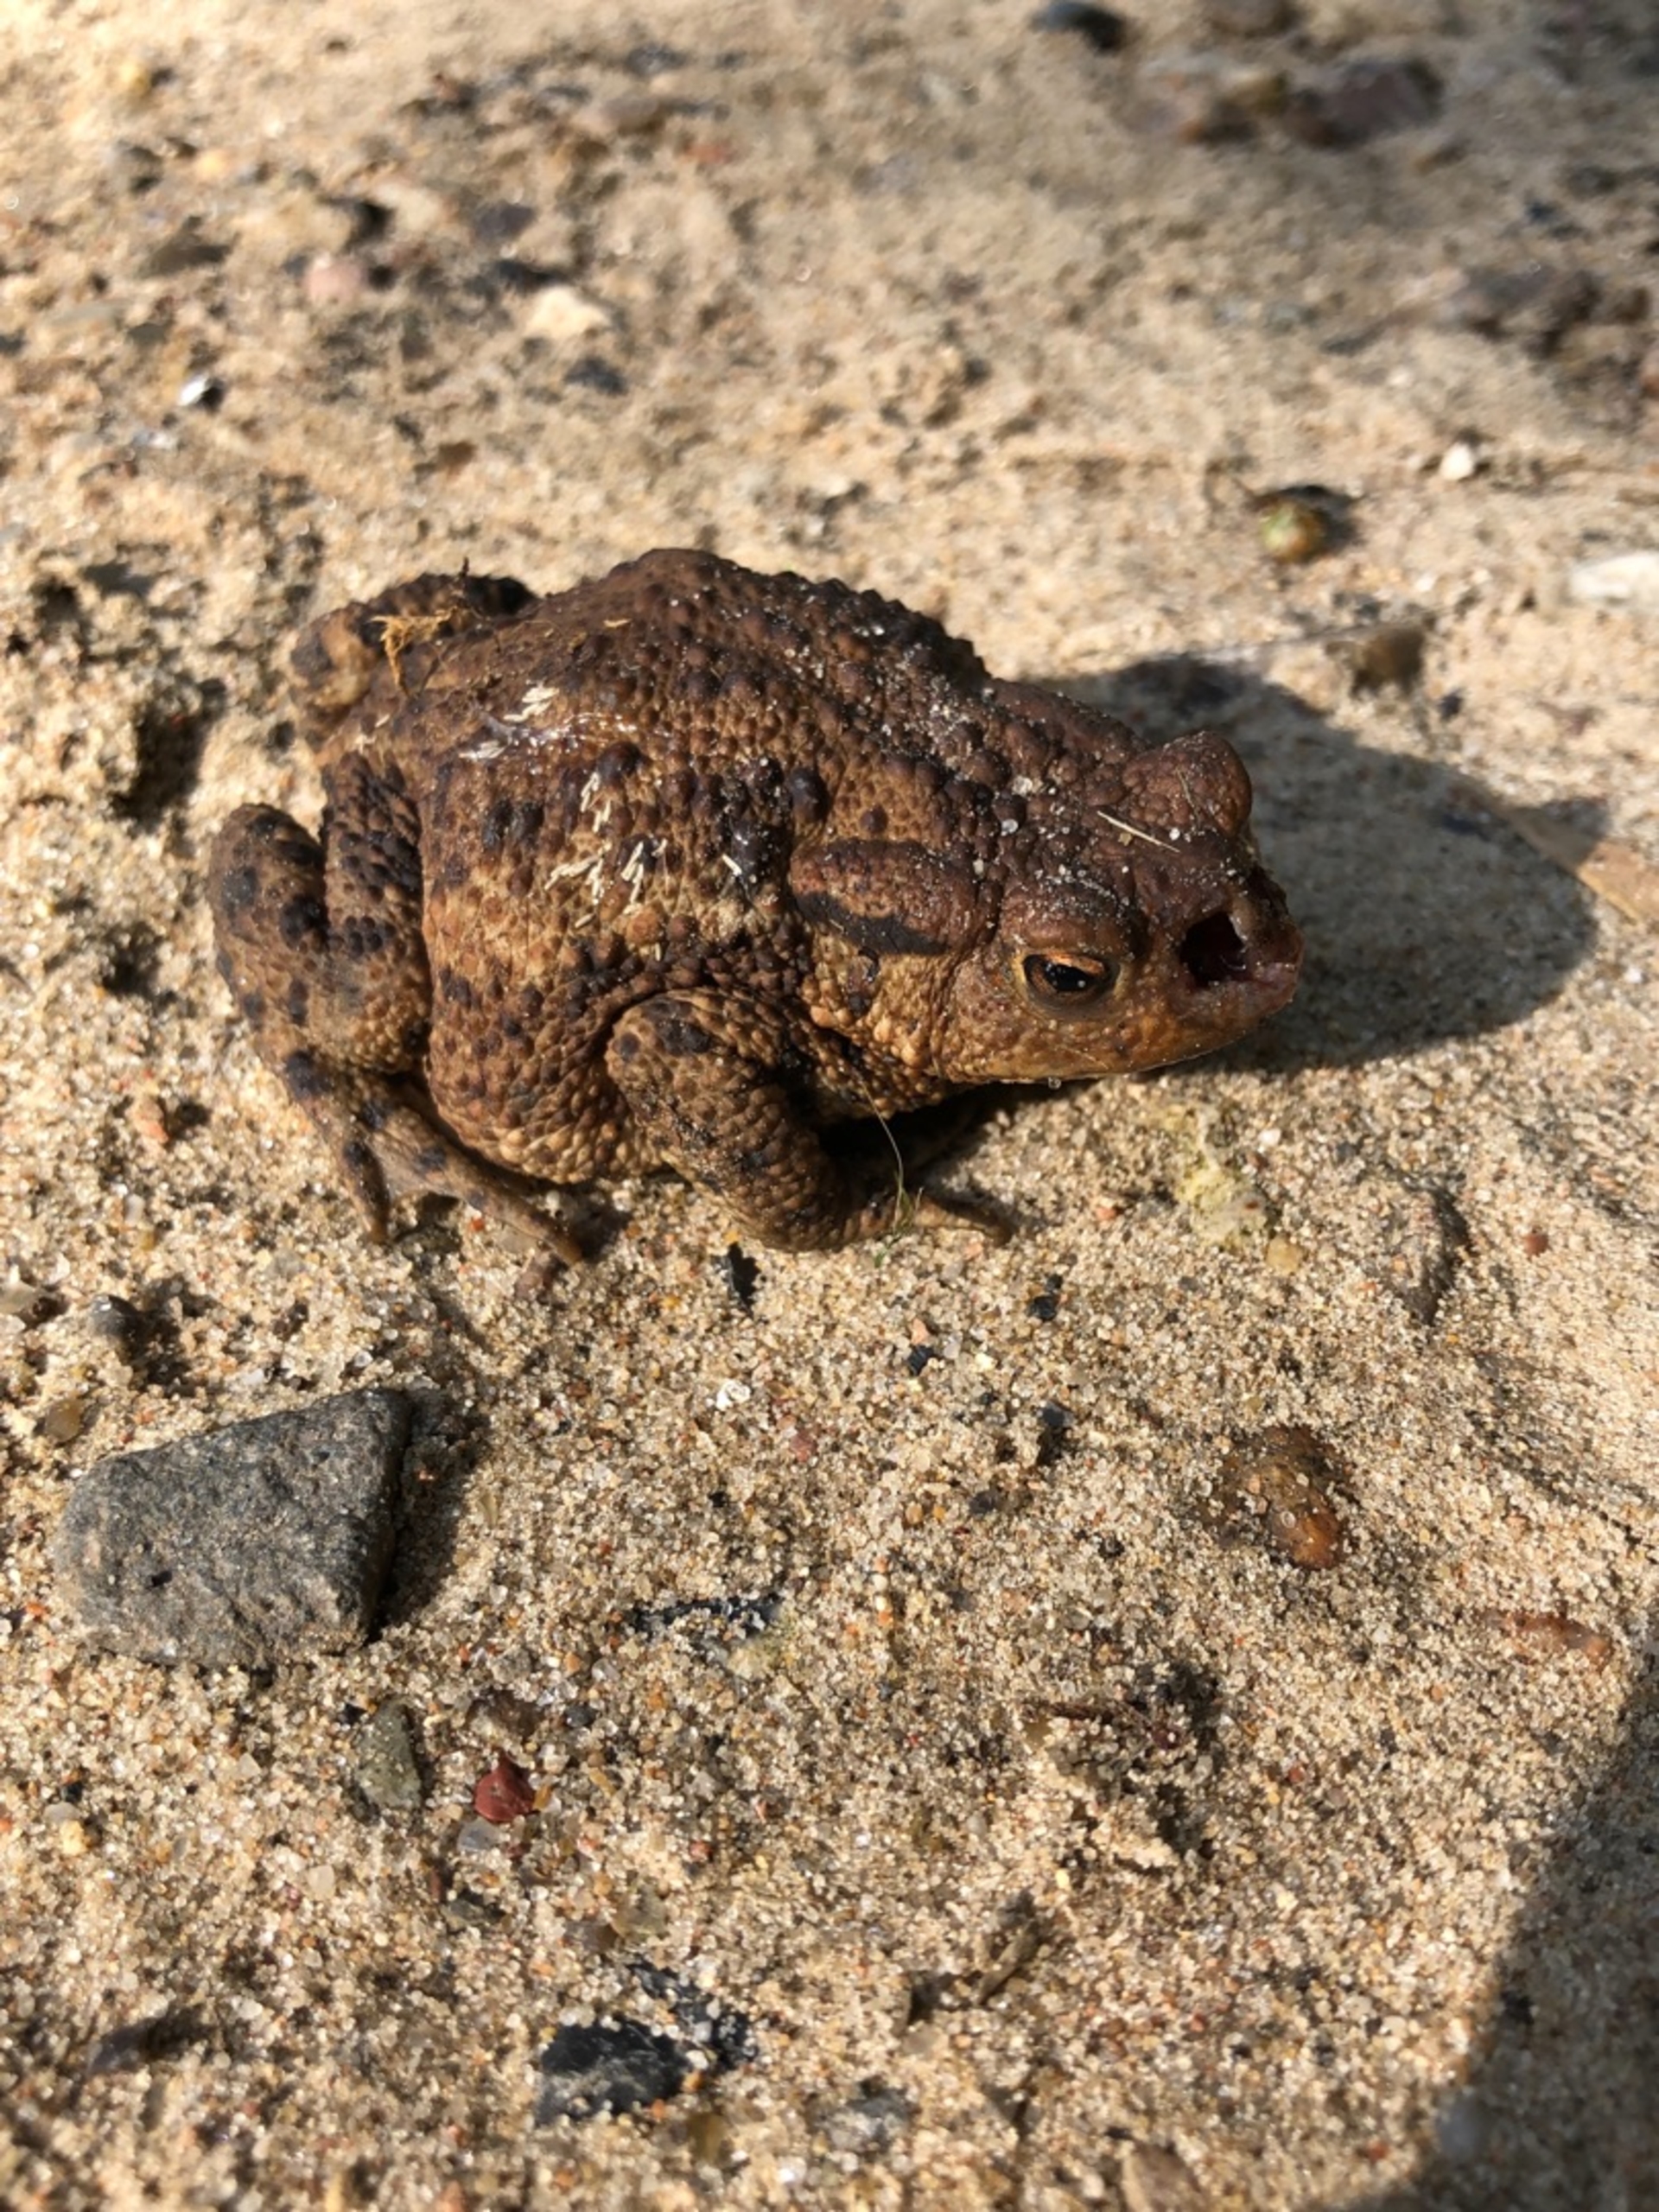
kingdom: Animalia
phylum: Chordata
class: Amphibia
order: Anura
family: Bufonidae
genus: Bufo
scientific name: Bufo bufo
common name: Skrubtudse
